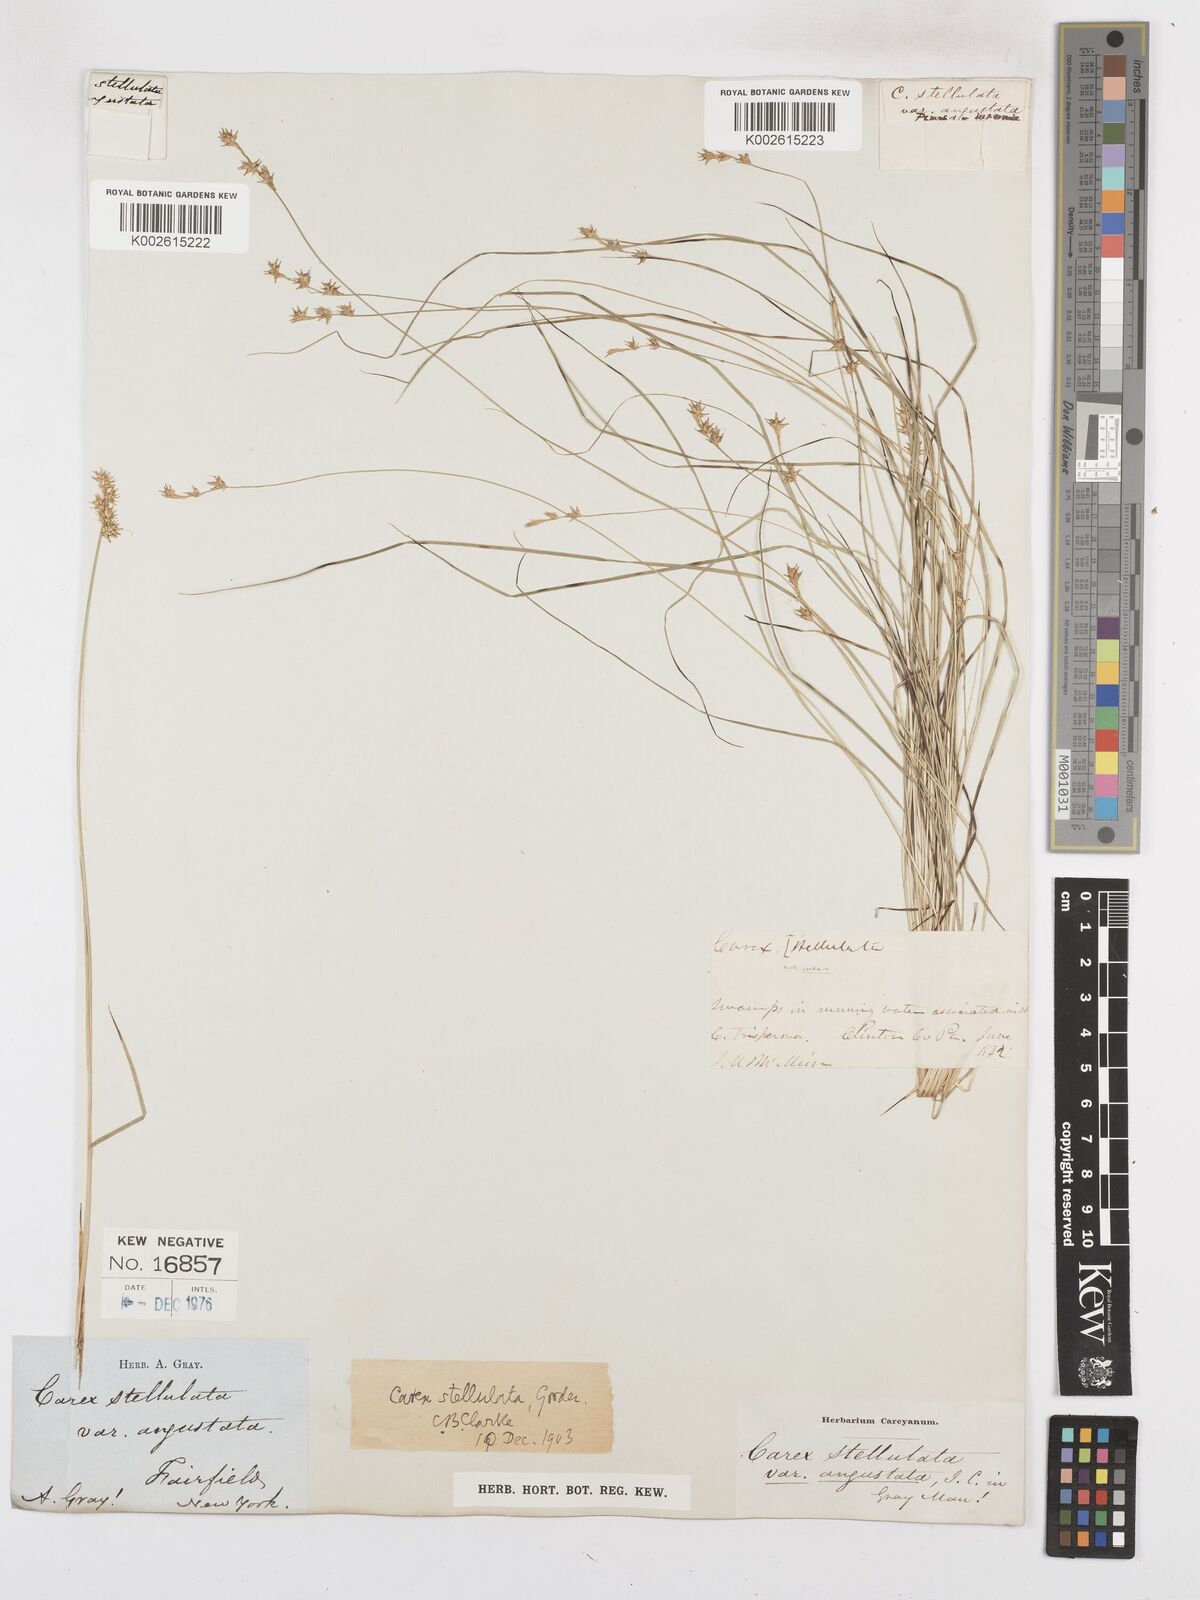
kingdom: Plantae
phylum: Tracheophyta
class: Liliopsida
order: Poales
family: Cyperaceae
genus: Carex
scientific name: Carex echinata
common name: Star sedge
